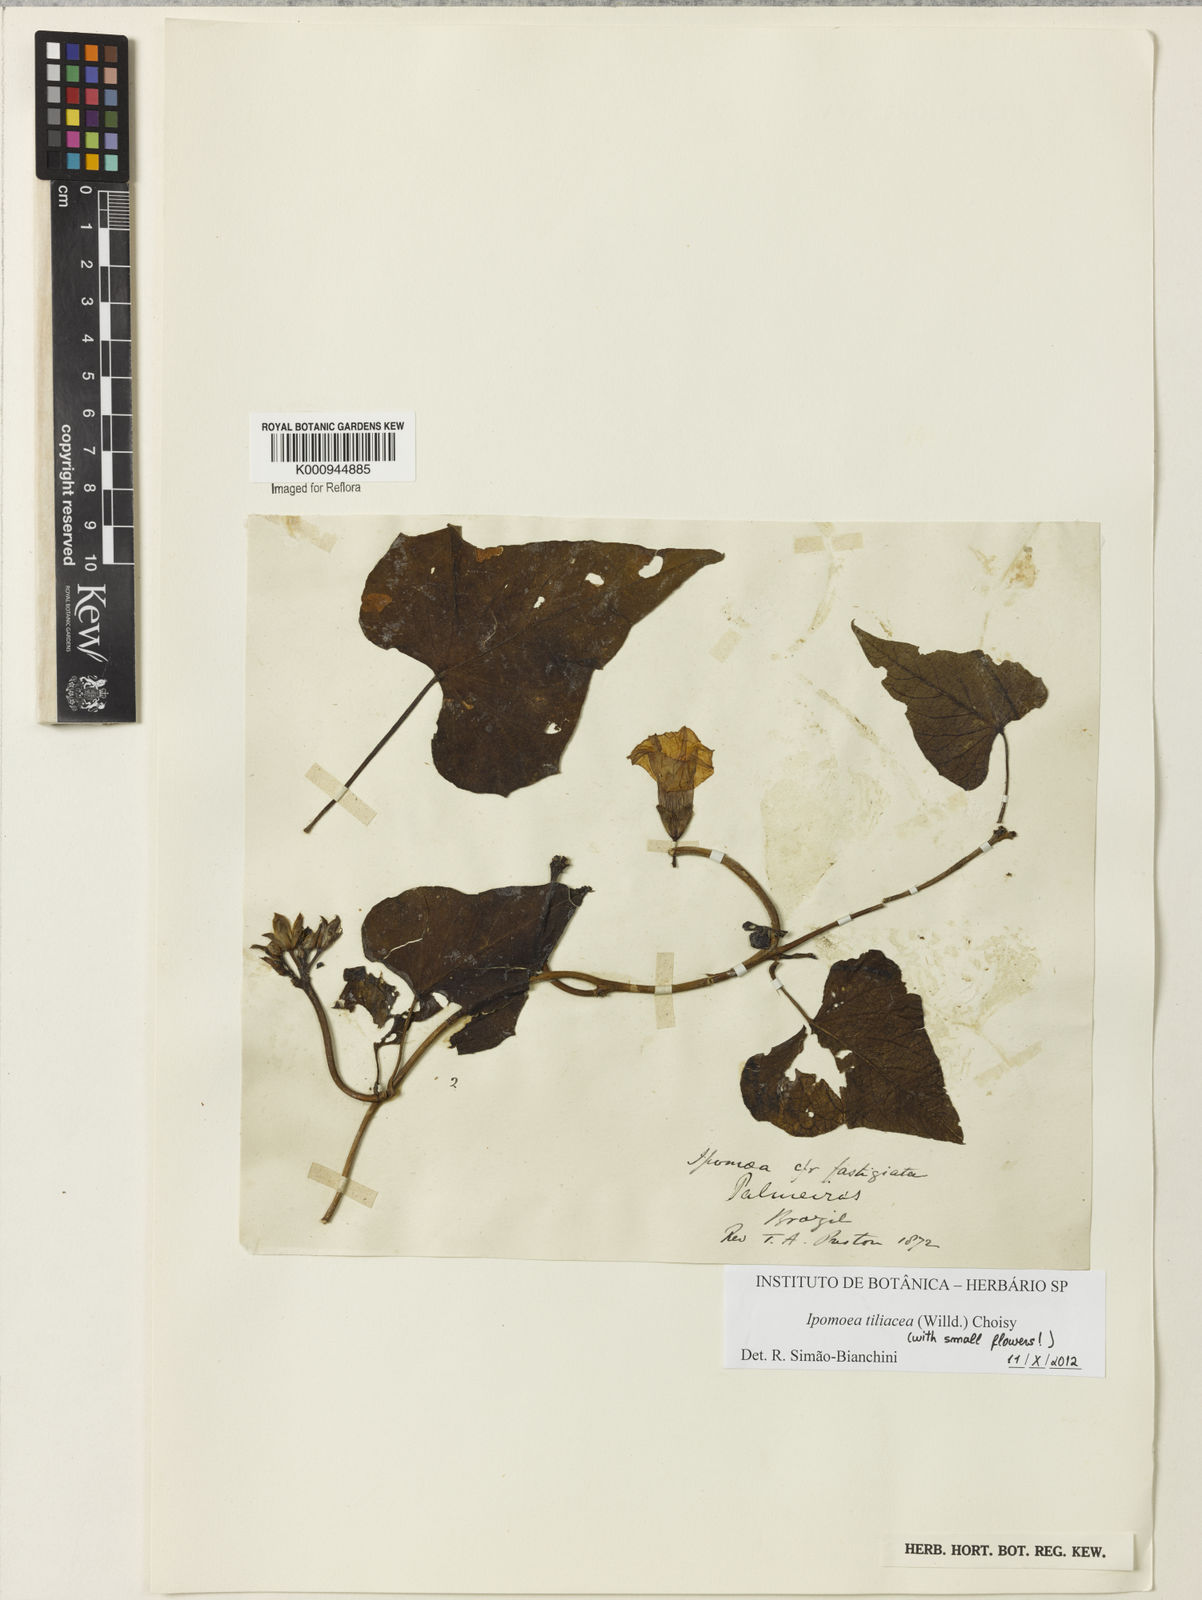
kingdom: Plantae
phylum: Tracheophyta
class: Magnoliopsida
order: Solanales
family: Convolvulaceae
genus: Ipomoea
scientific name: Ipomoea tiliacea
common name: Wild potato vine
